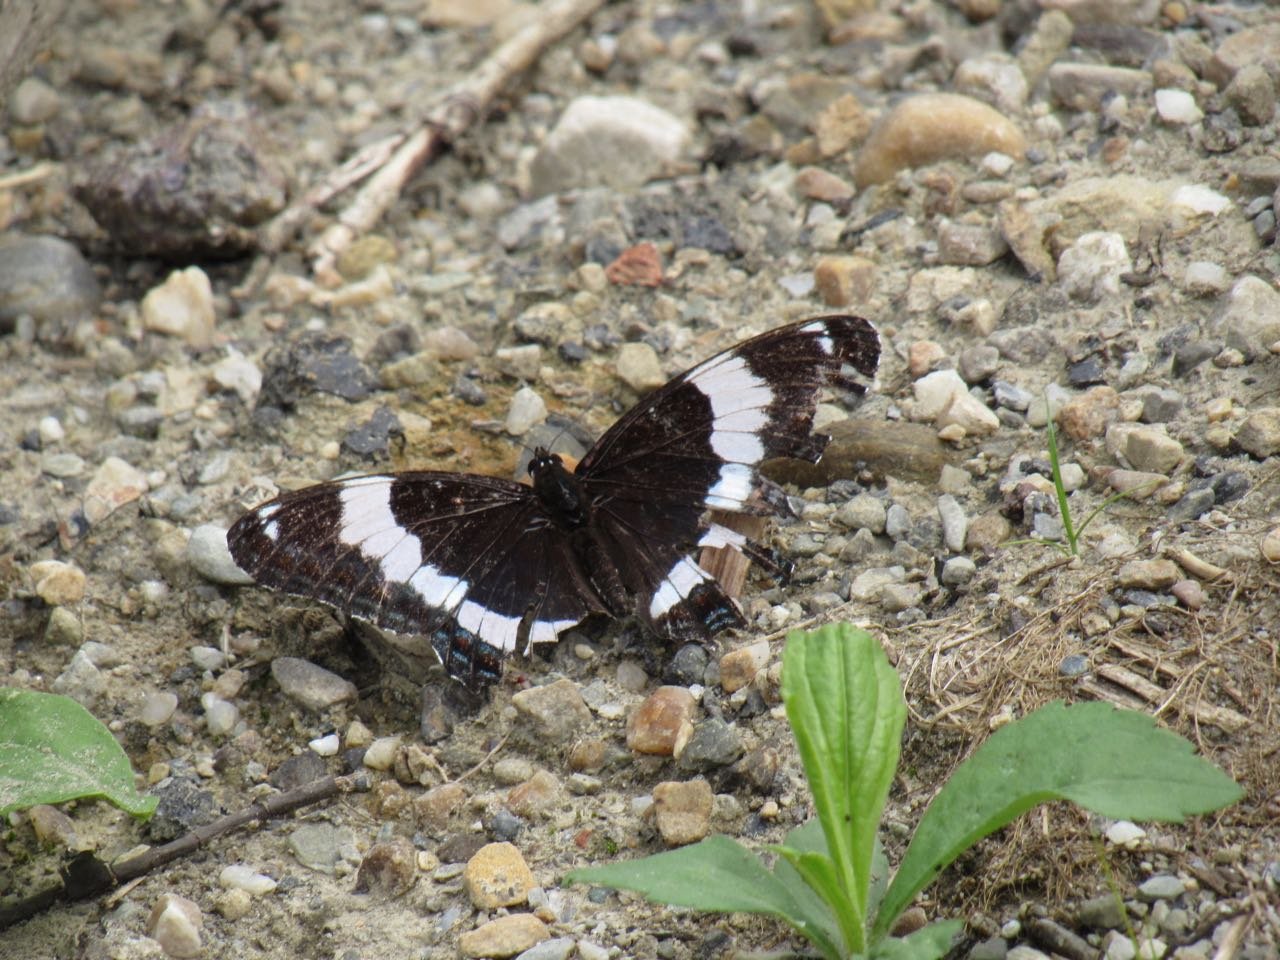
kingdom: Animalia
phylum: Arthropoda
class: Insecta
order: Lepidoptera
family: Nymphalidae
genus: Limenitis
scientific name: Limenitis arthemis
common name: Red-spotted Admiral
